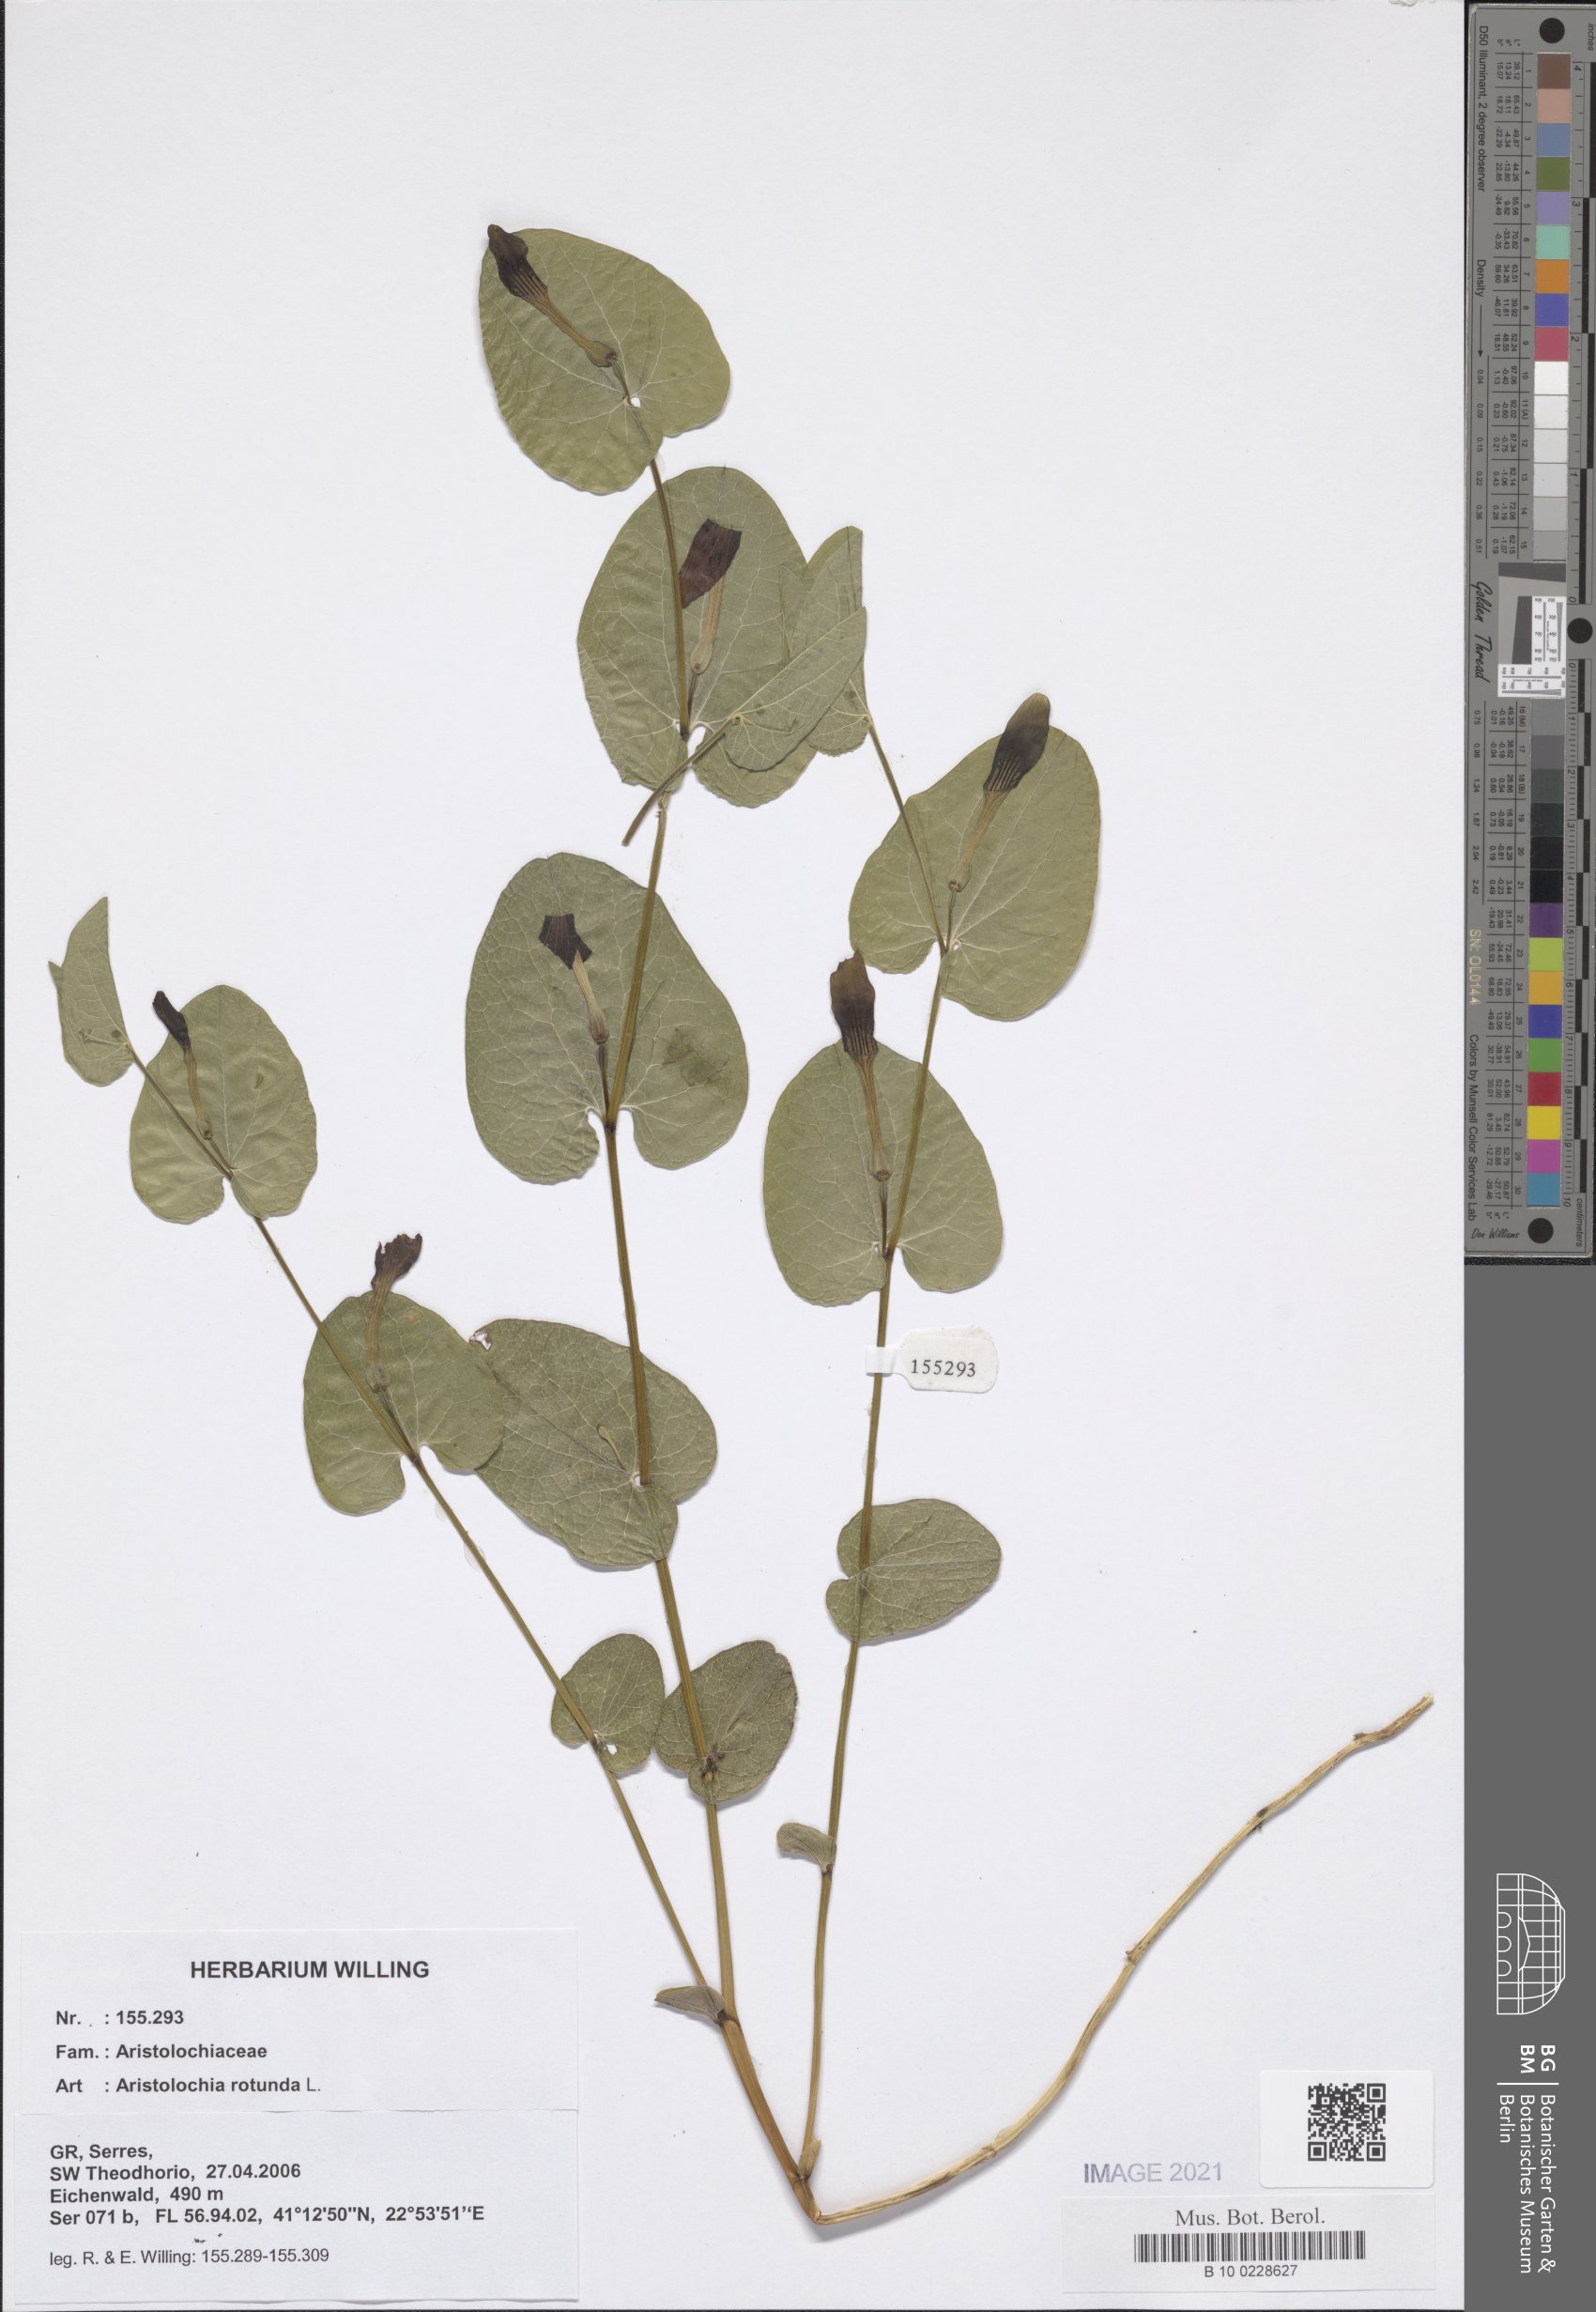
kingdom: Plantae
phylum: Tracheophyta
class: Magnoliopsida
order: Piperales
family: Aristolochiaceae
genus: Aristolochia
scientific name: Aristolochia rotunda
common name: Smearwort
